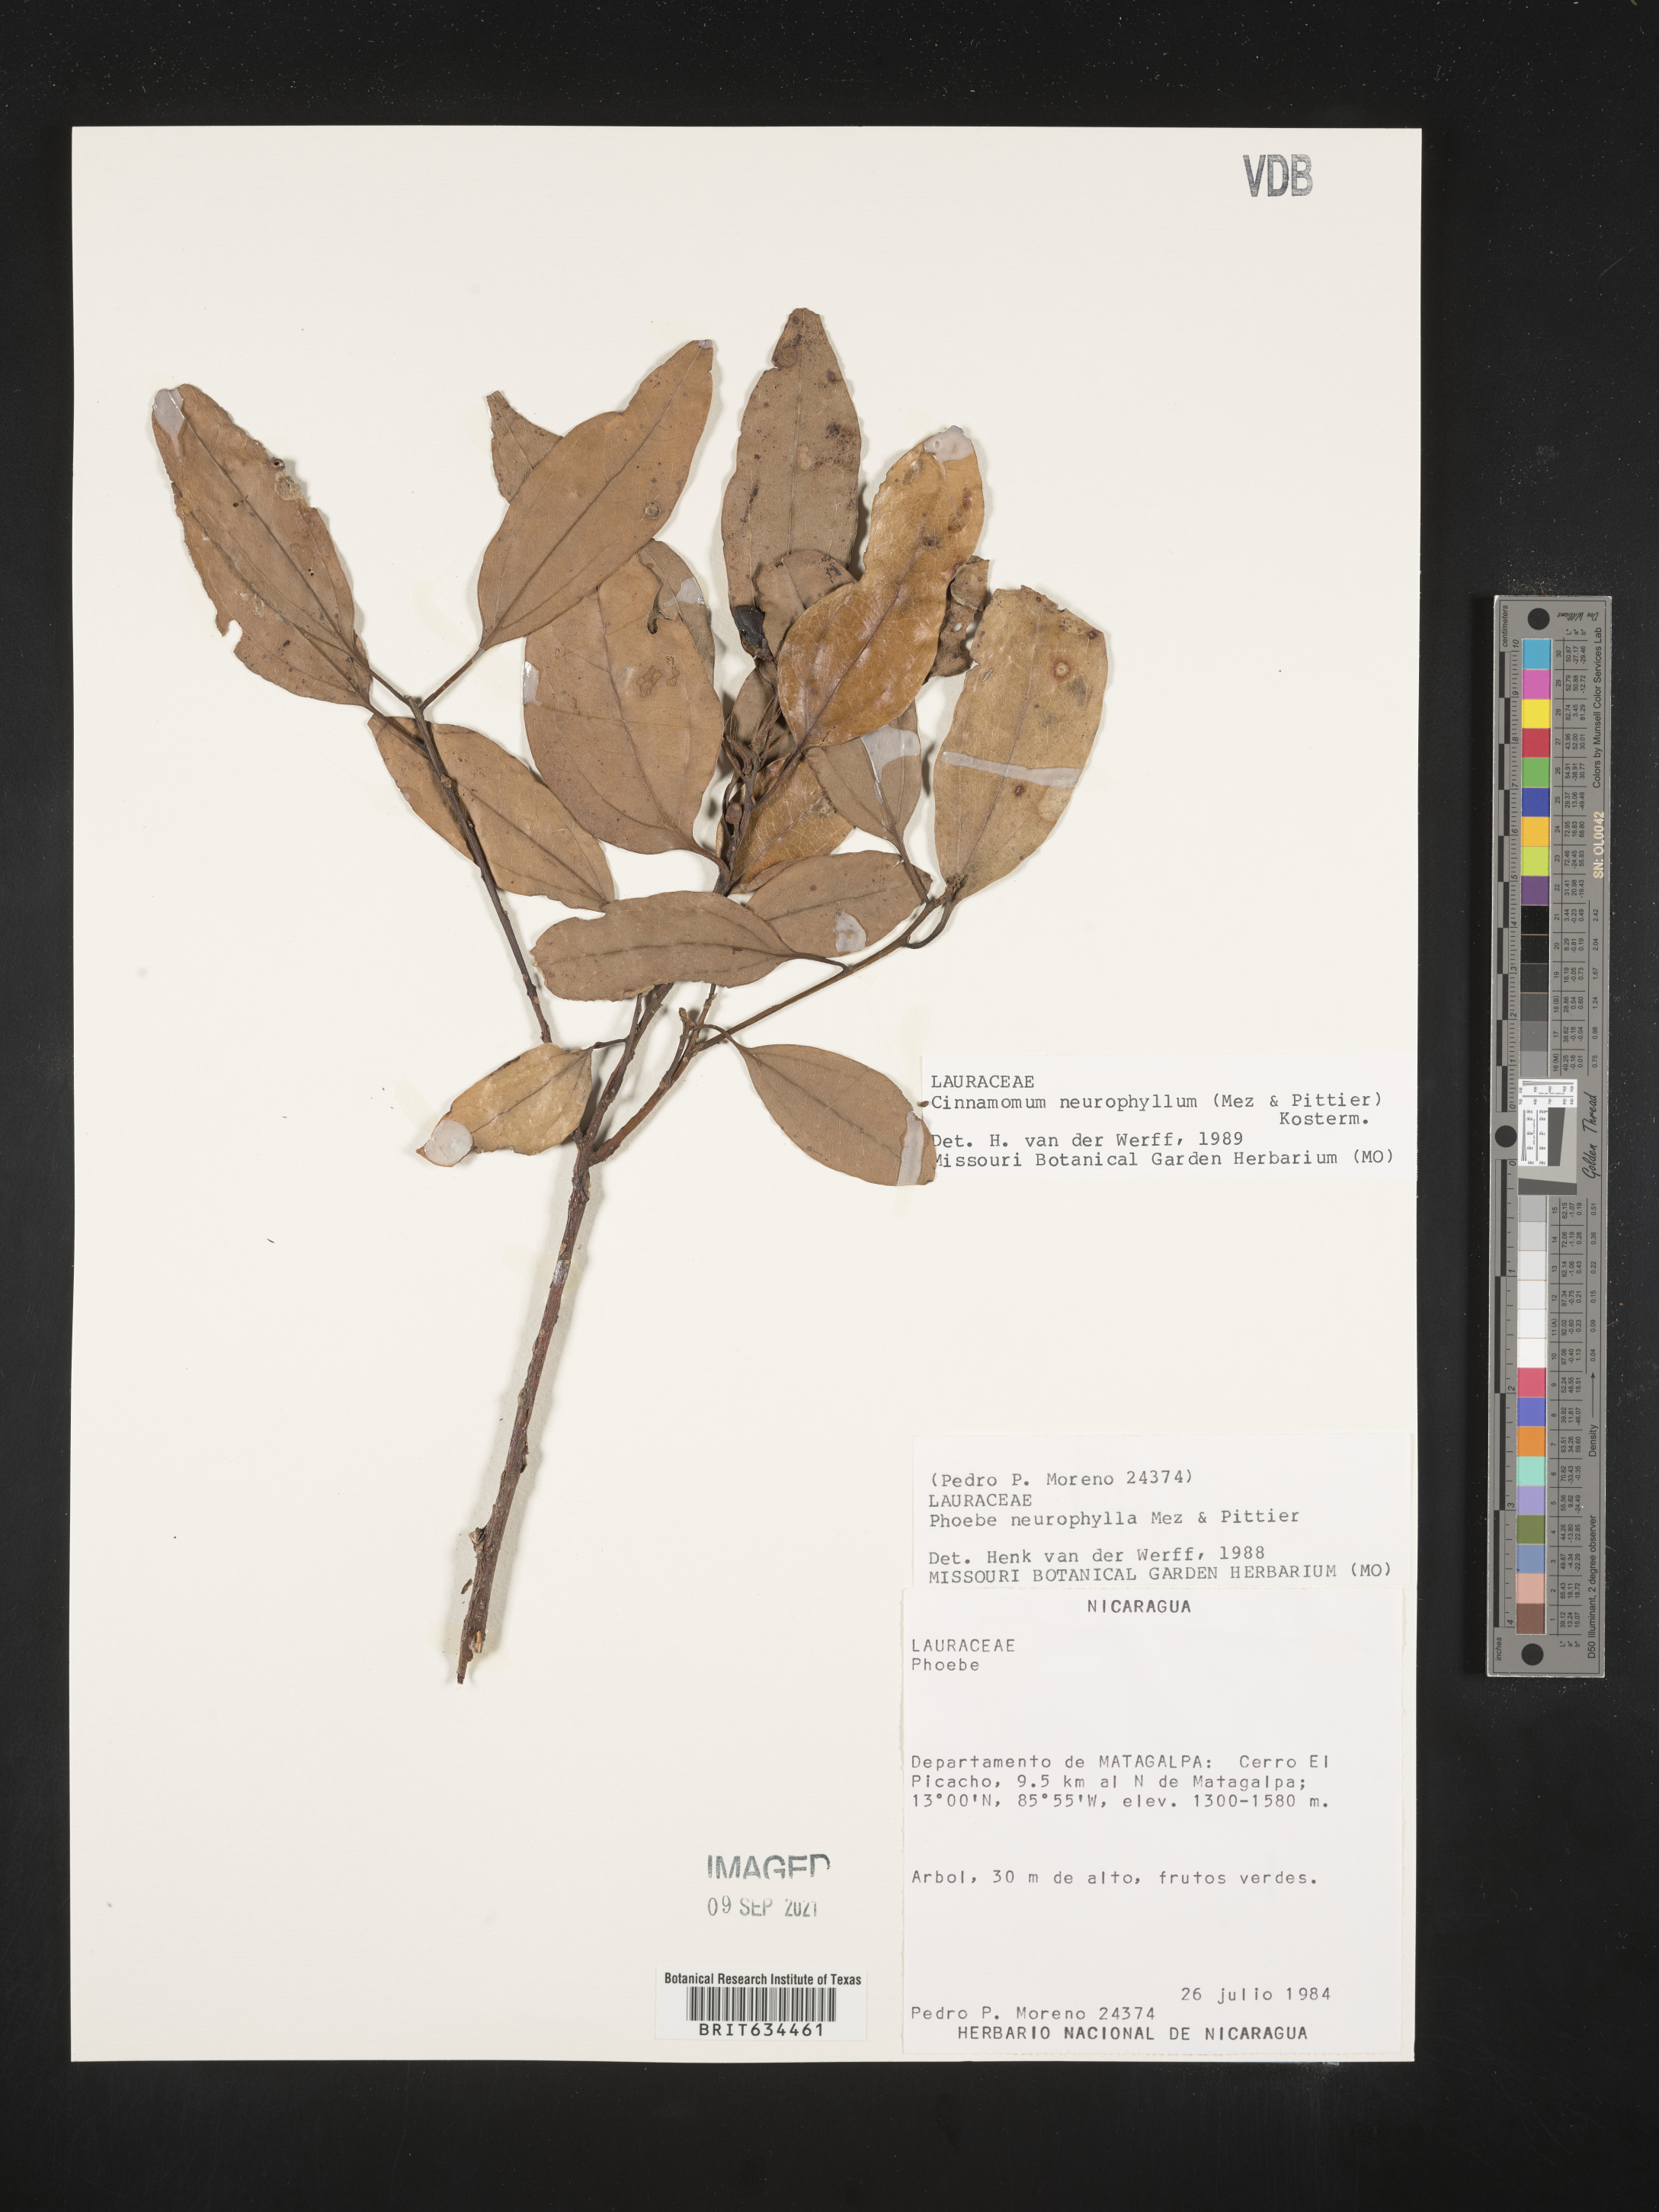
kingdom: Plantae
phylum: Tracheophyta
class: Magnoliopsida
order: Laurales
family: Lauraceae
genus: Phoebe
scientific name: Phoebe
